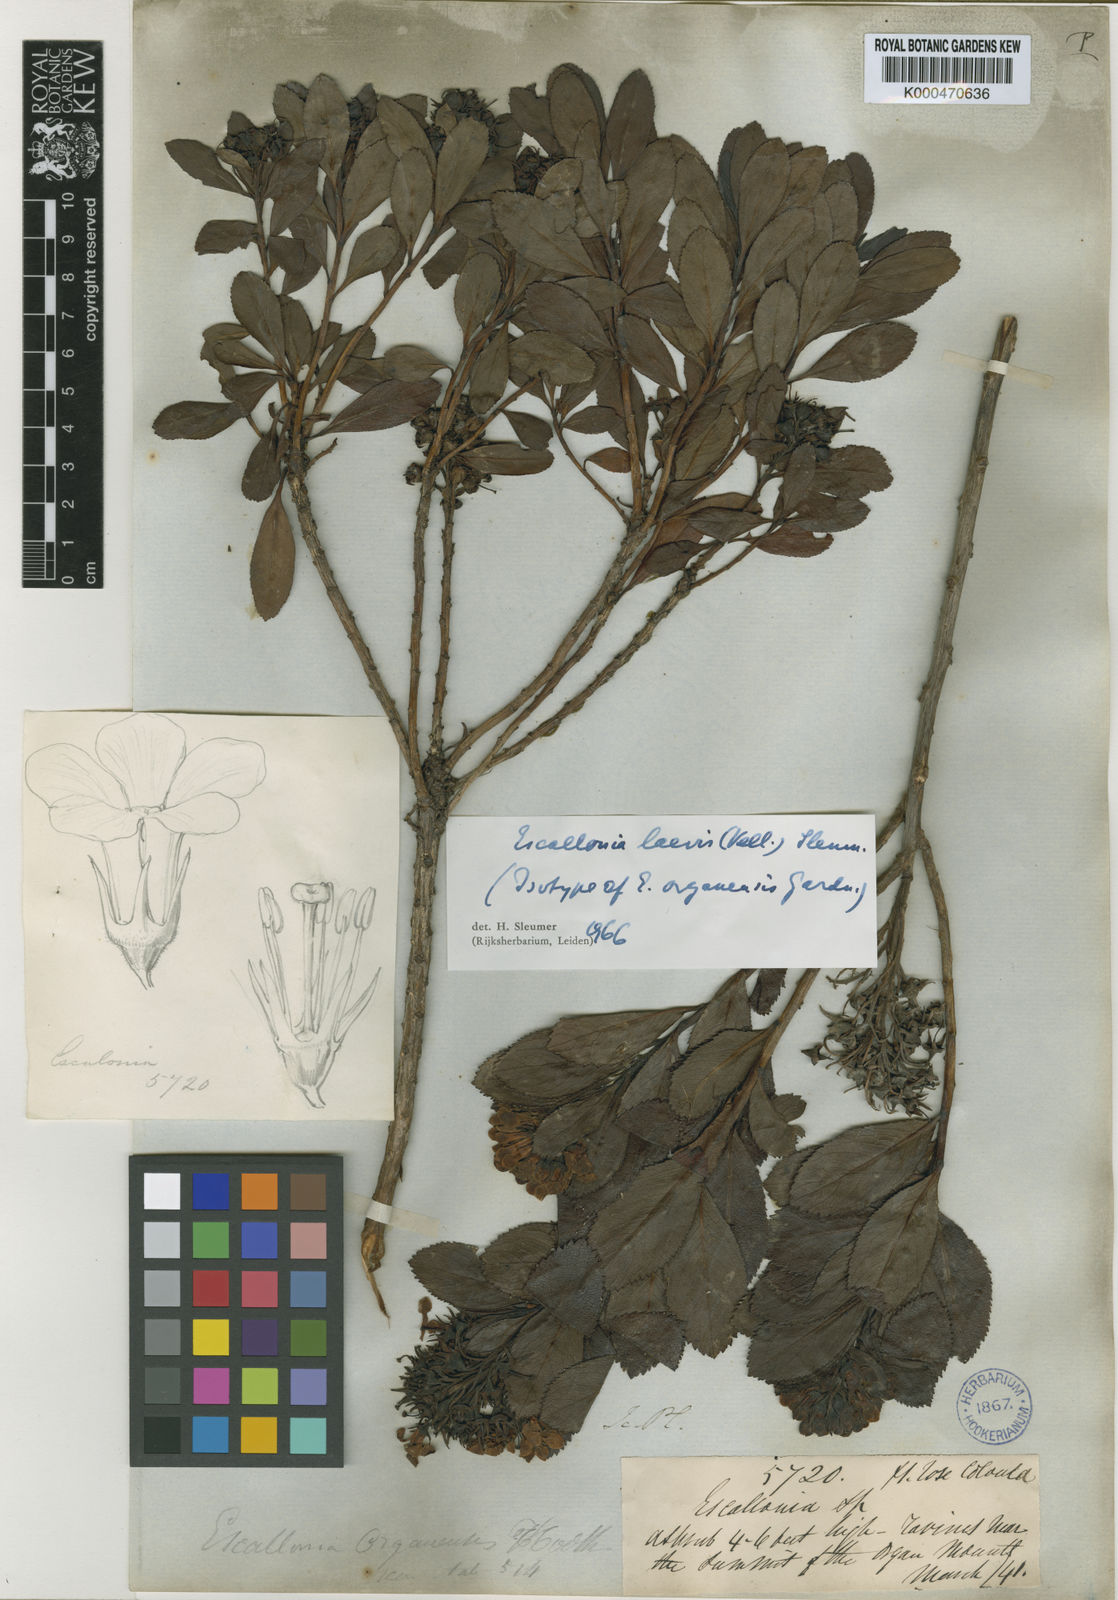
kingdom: Plantae
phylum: Tracheophyta
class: Magnoliopsida
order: Escalloniales
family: Escalloniaceae
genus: Escallonia
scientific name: Escallonia laevis
